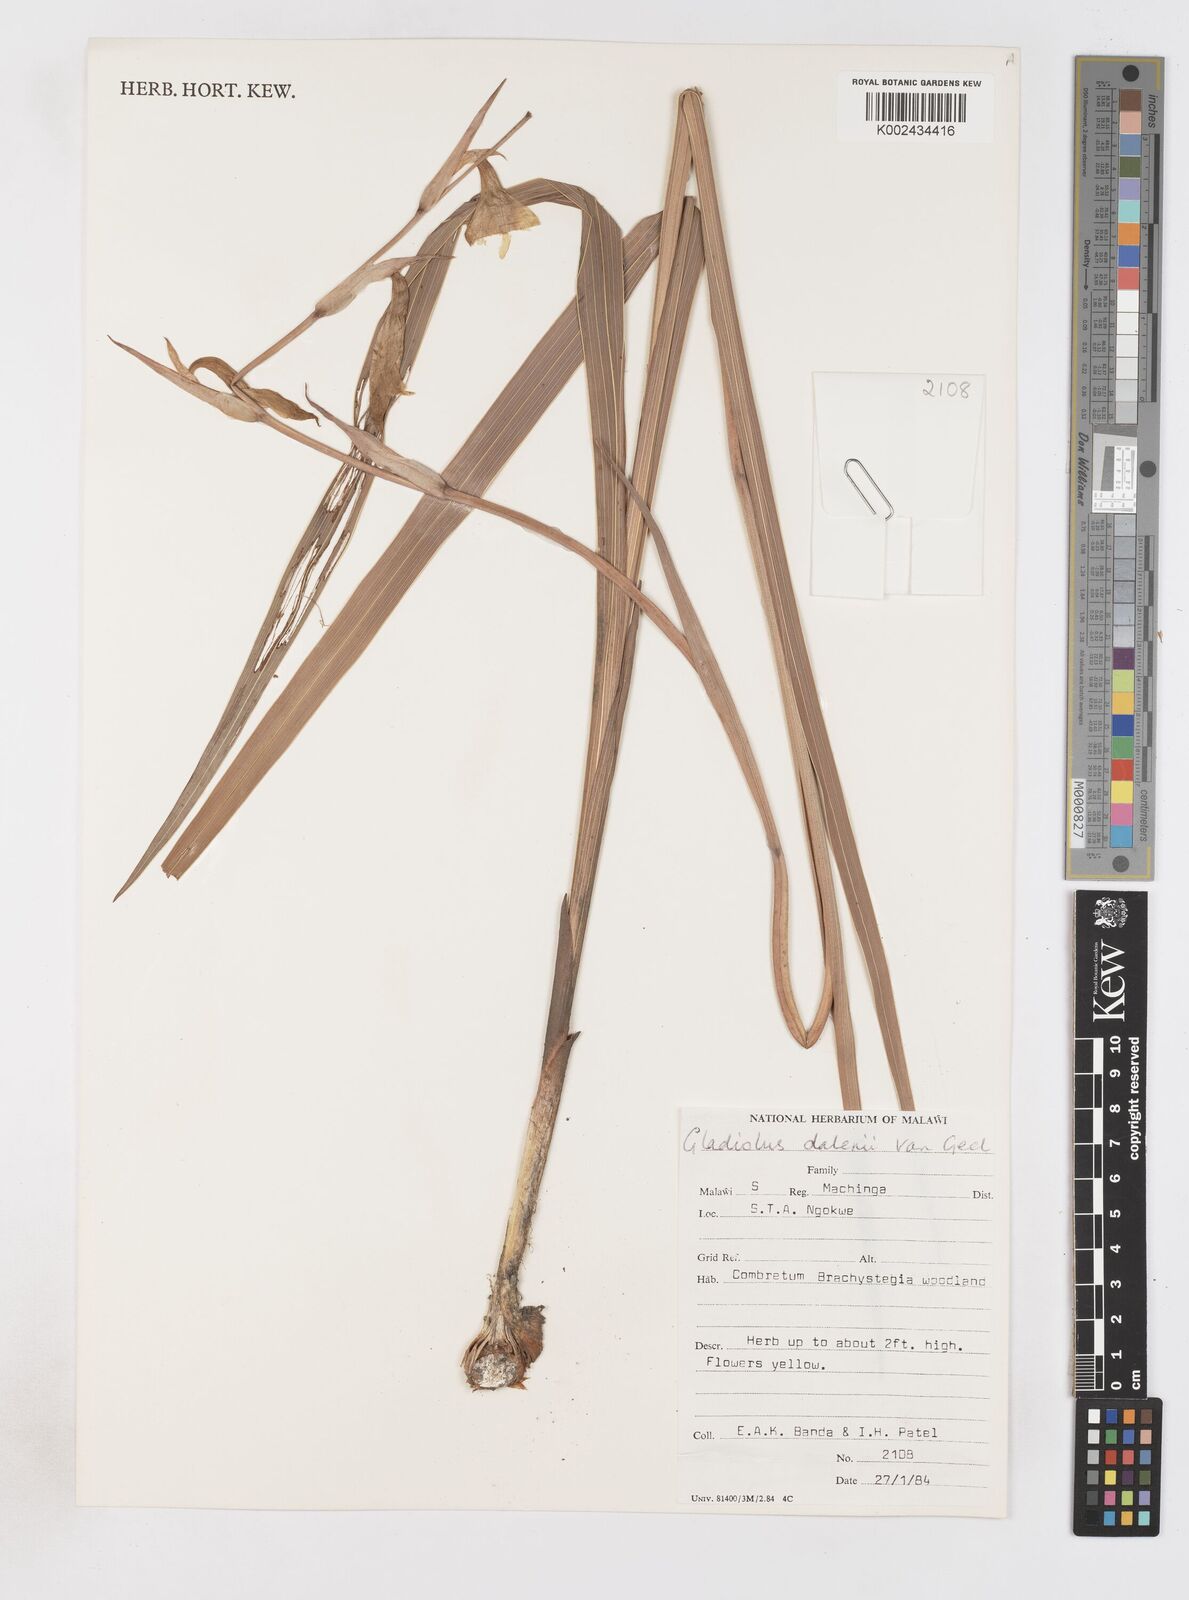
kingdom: Plantae
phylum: Tracheophyta
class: Liliopsida
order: Asparagales
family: Iridaceae
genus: Gladiolus
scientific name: Gladiolus dalenii
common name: Cornflag
